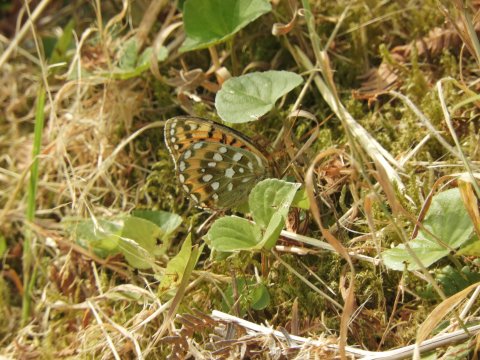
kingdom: Animalia
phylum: Arthropoda
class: Insecta
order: Lepidoptera
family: Nymphalidae
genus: Speyeria
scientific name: Speyeria aglaja
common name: Dark Green Fritillary
